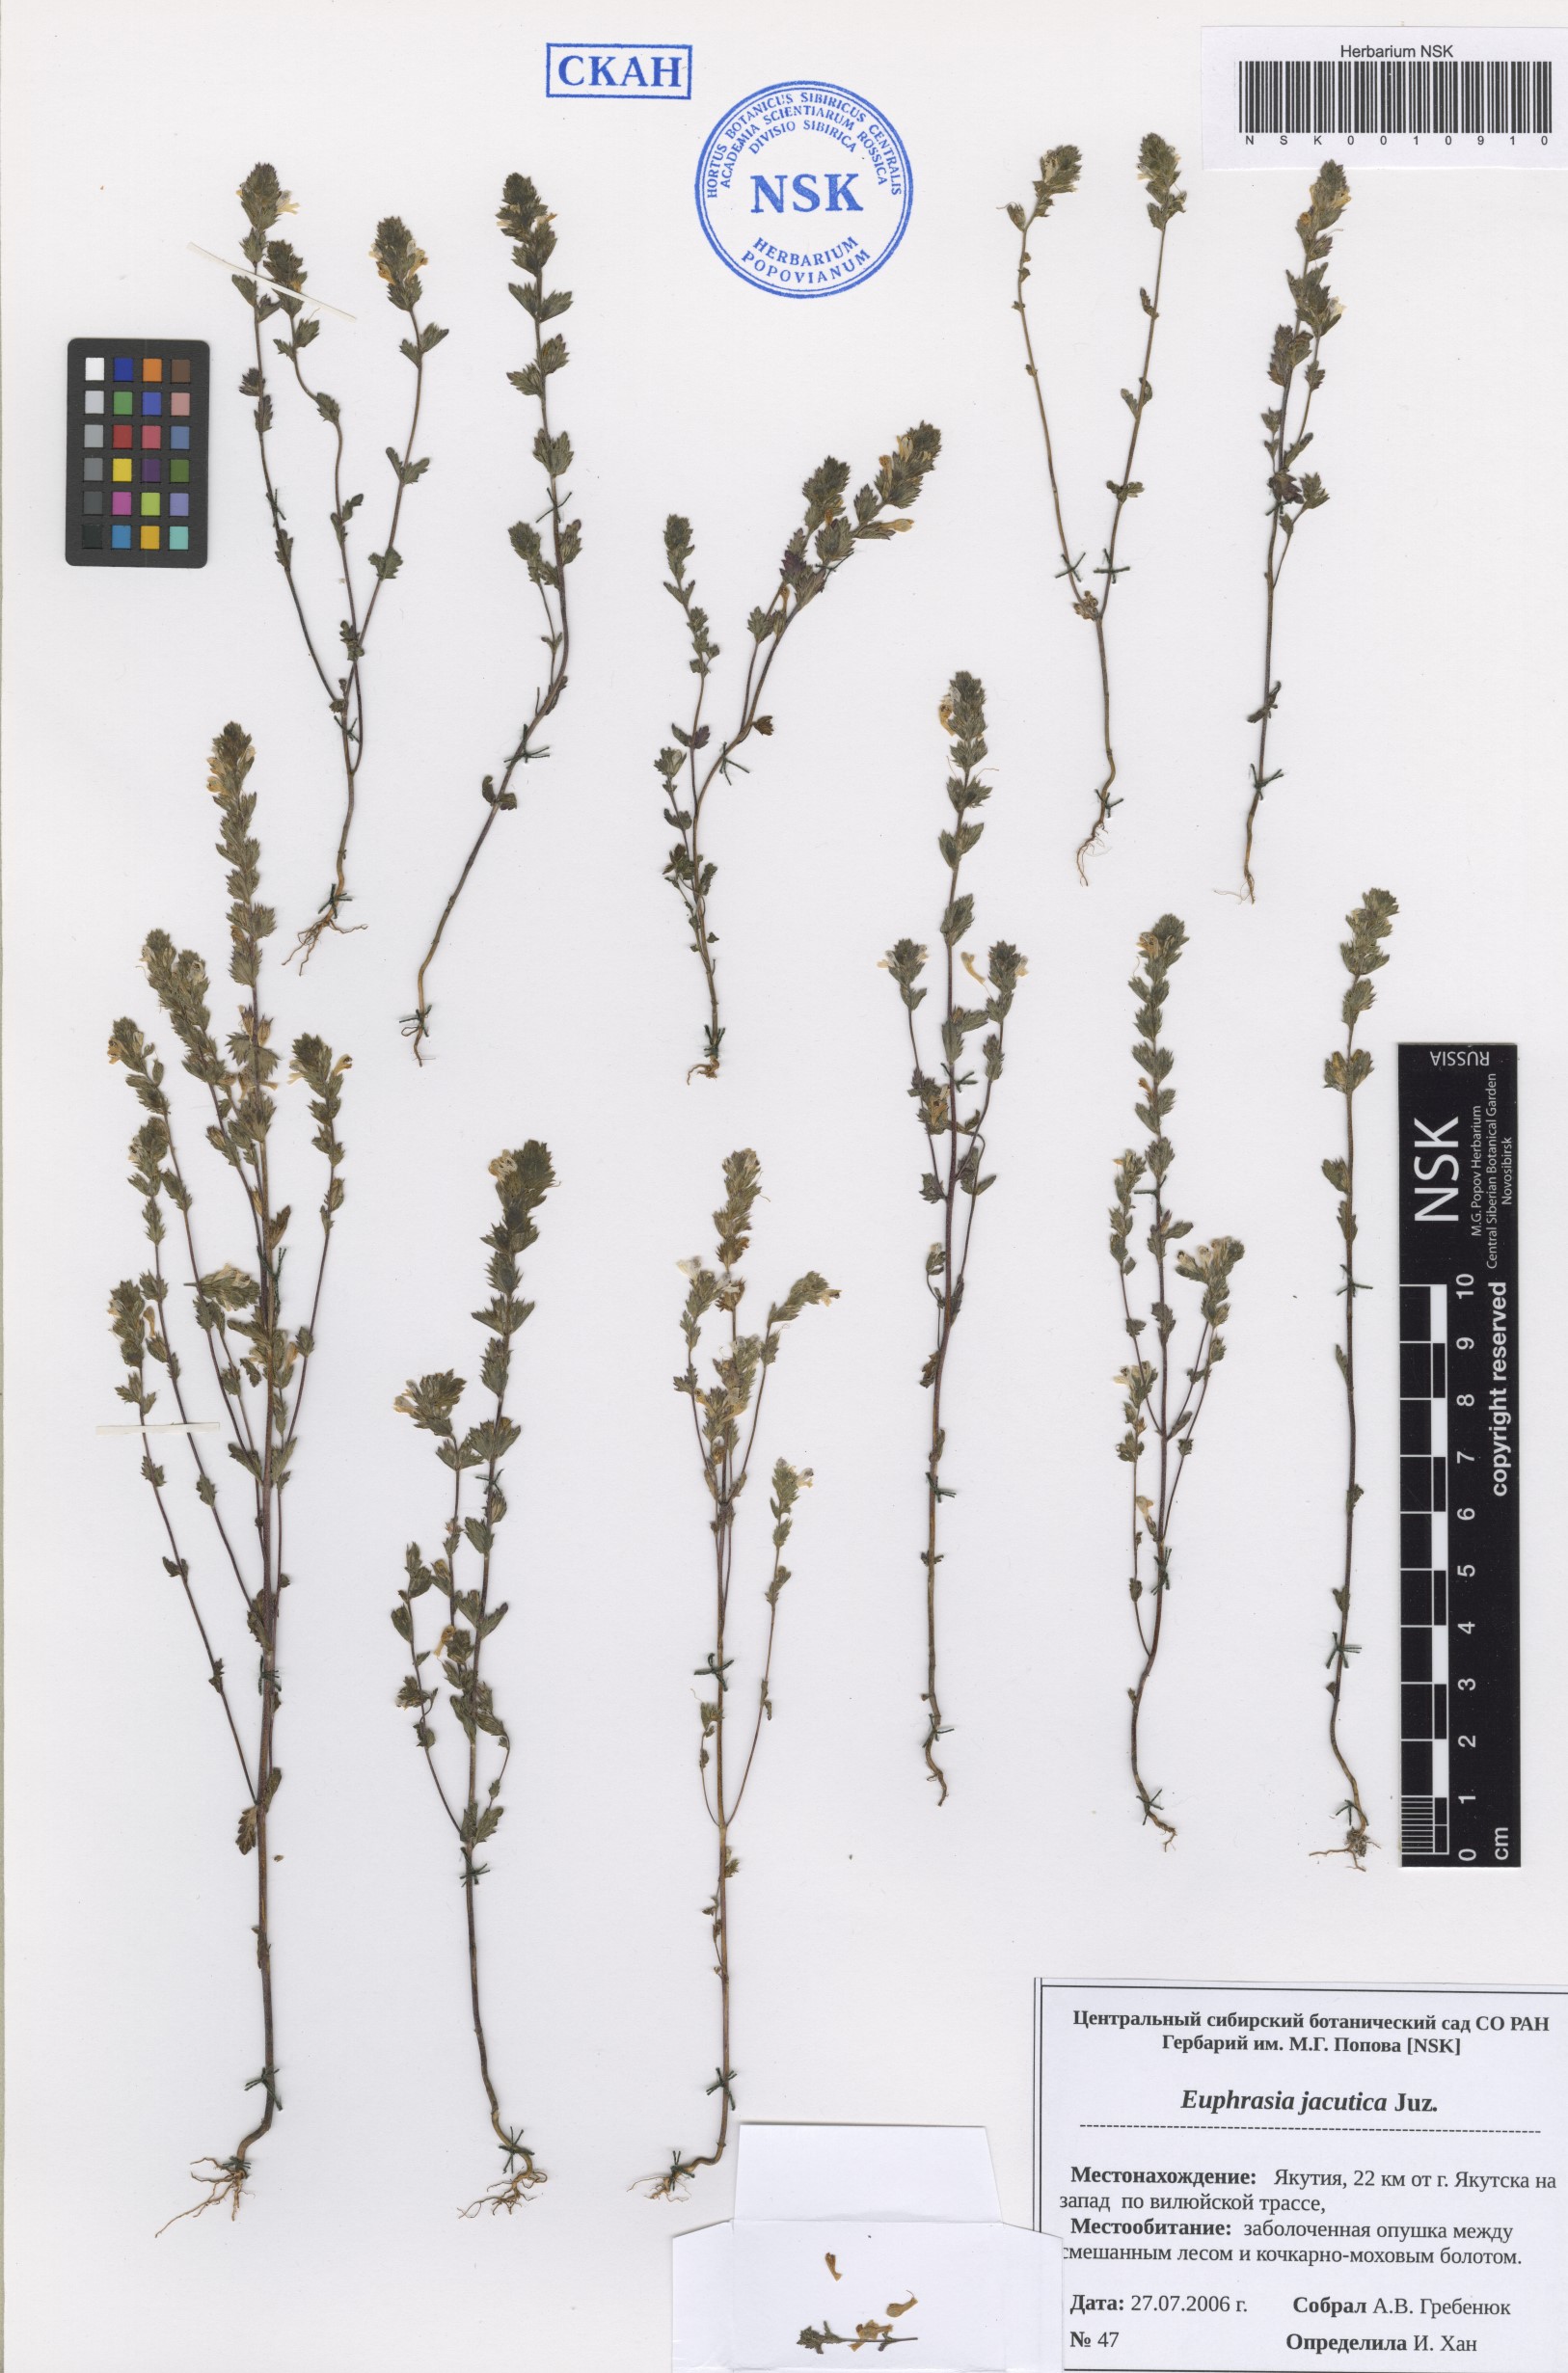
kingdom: Plantae
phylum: Tracheophyta
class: Magnoliopsida
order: Lamiales
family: Orobanchaceae
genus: Euphrasia
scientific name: Euphrasia jacutica
